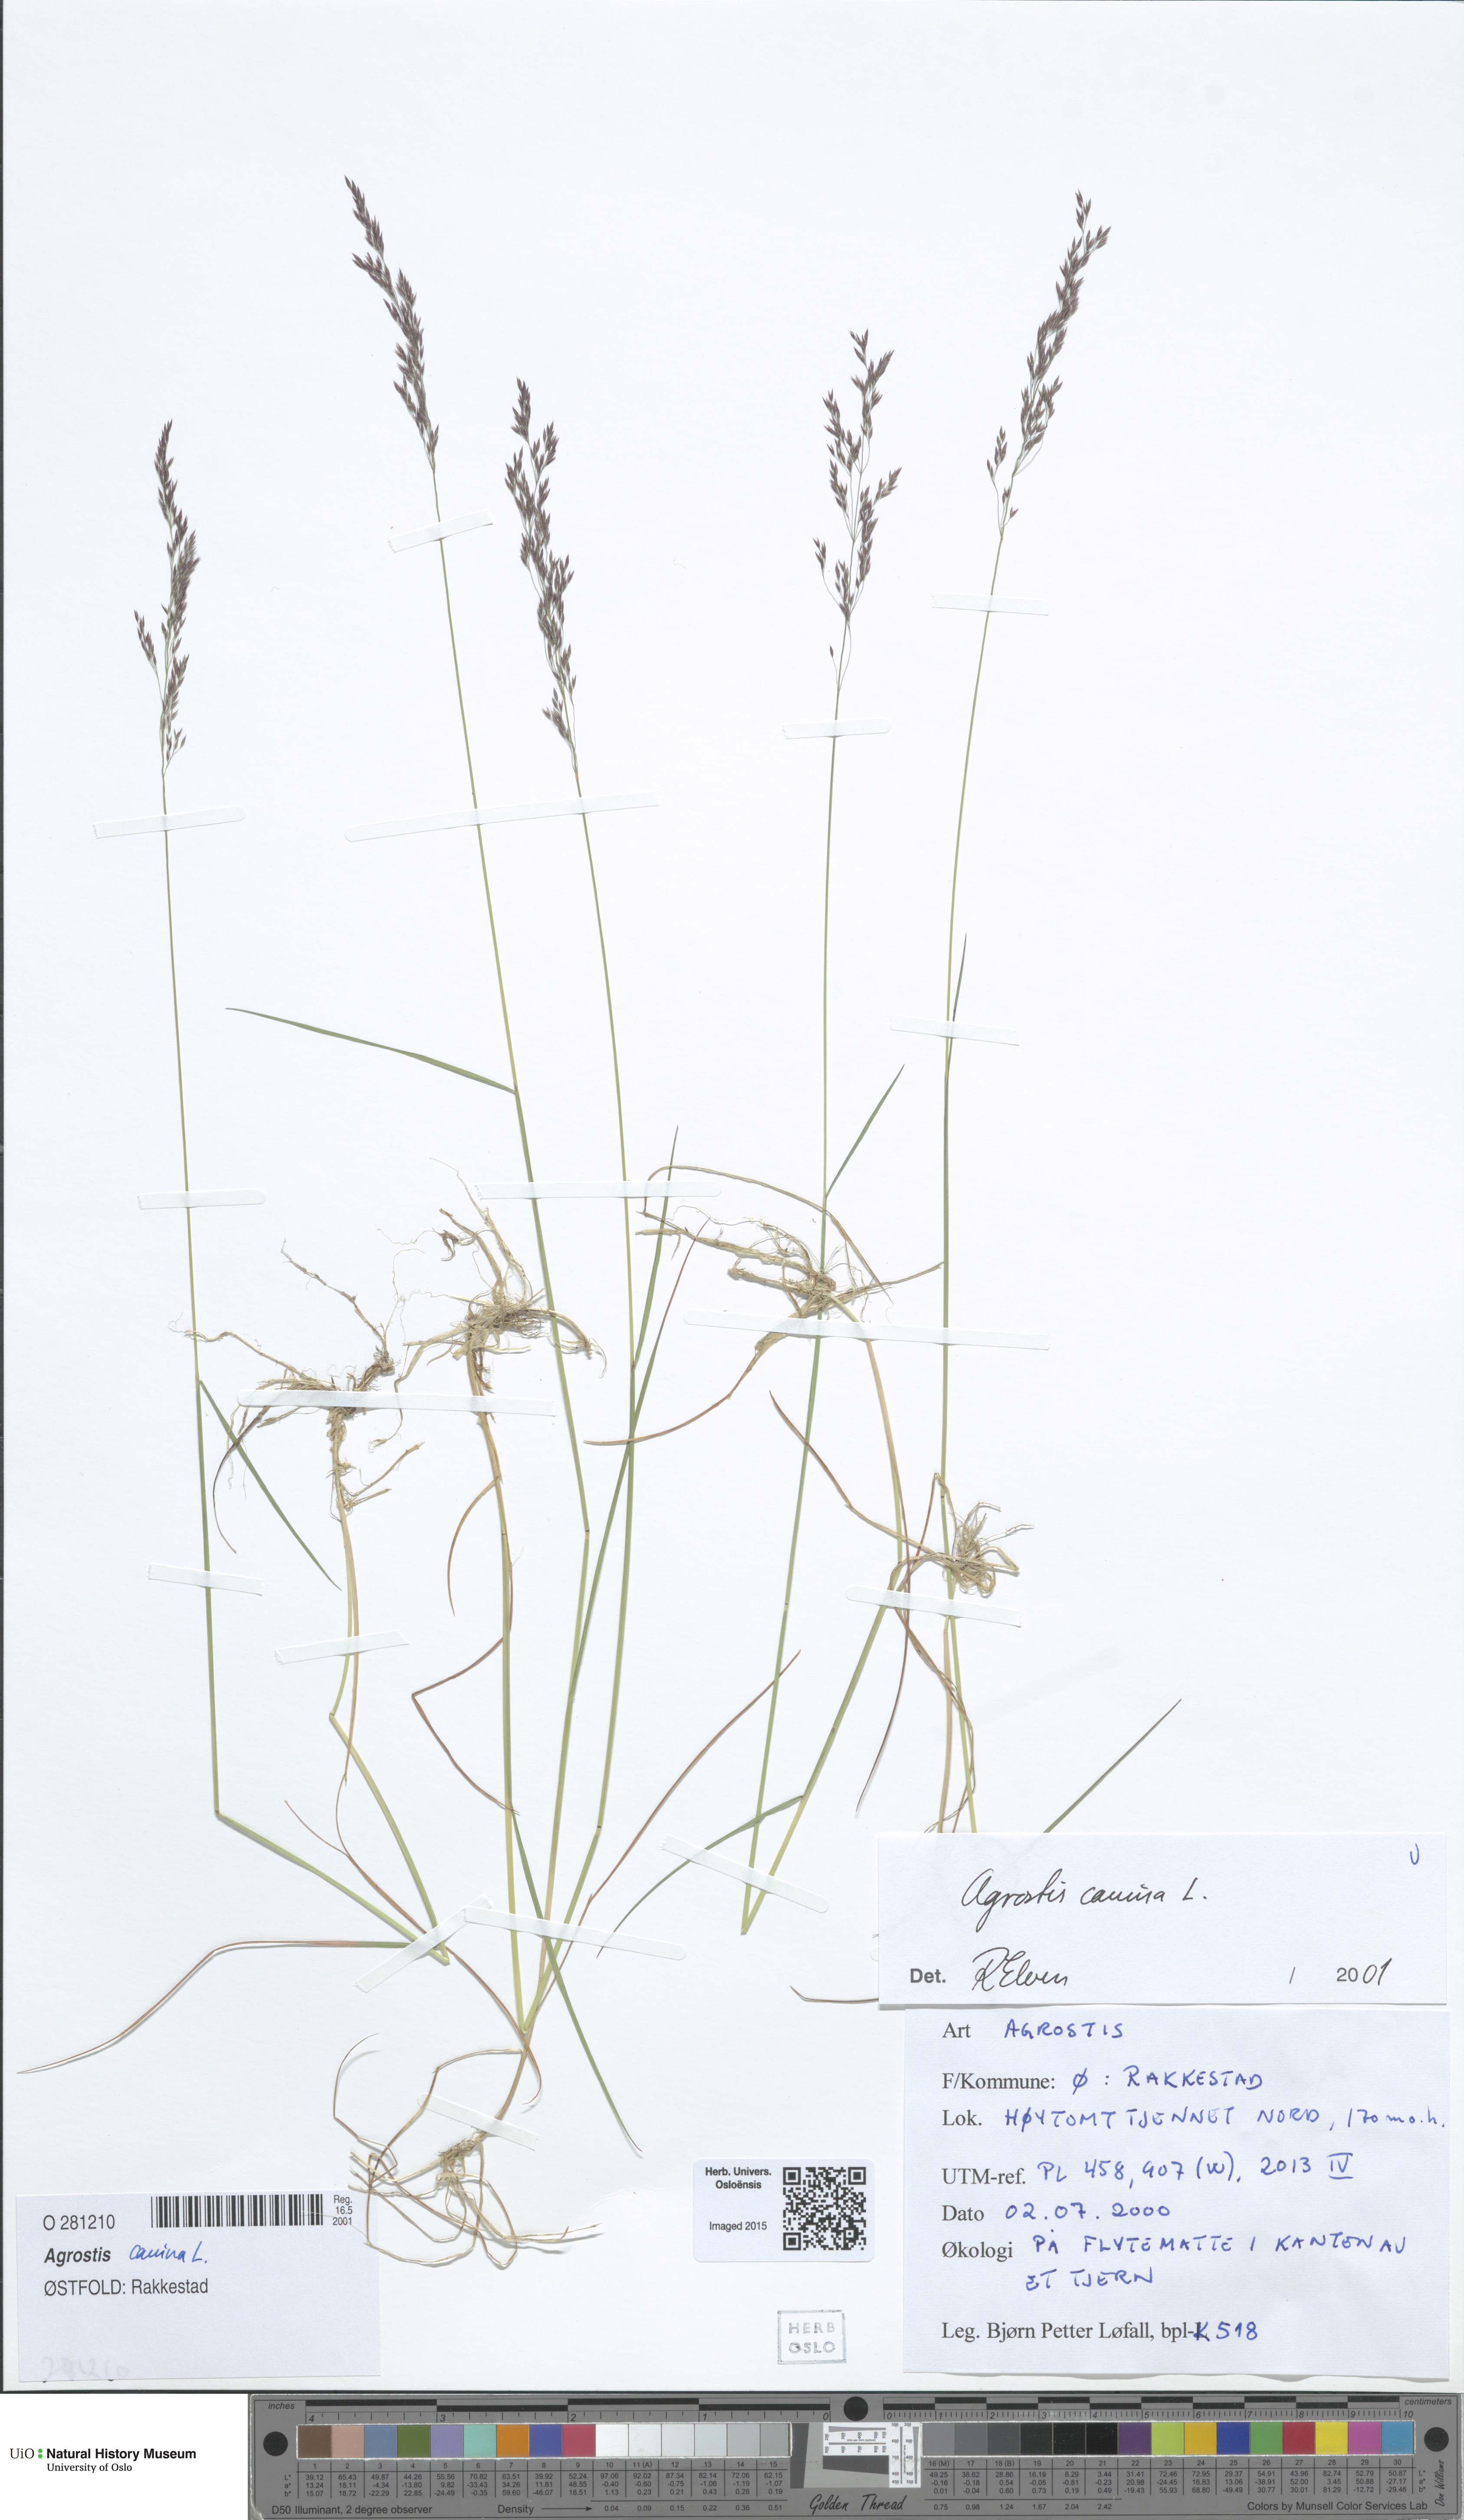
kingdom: Plantae
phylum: Tracheophyta
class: Liliopsida
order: Poales
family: Poaceae
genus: Agrostis
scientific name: Agrostis canina
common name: Velvet bent
